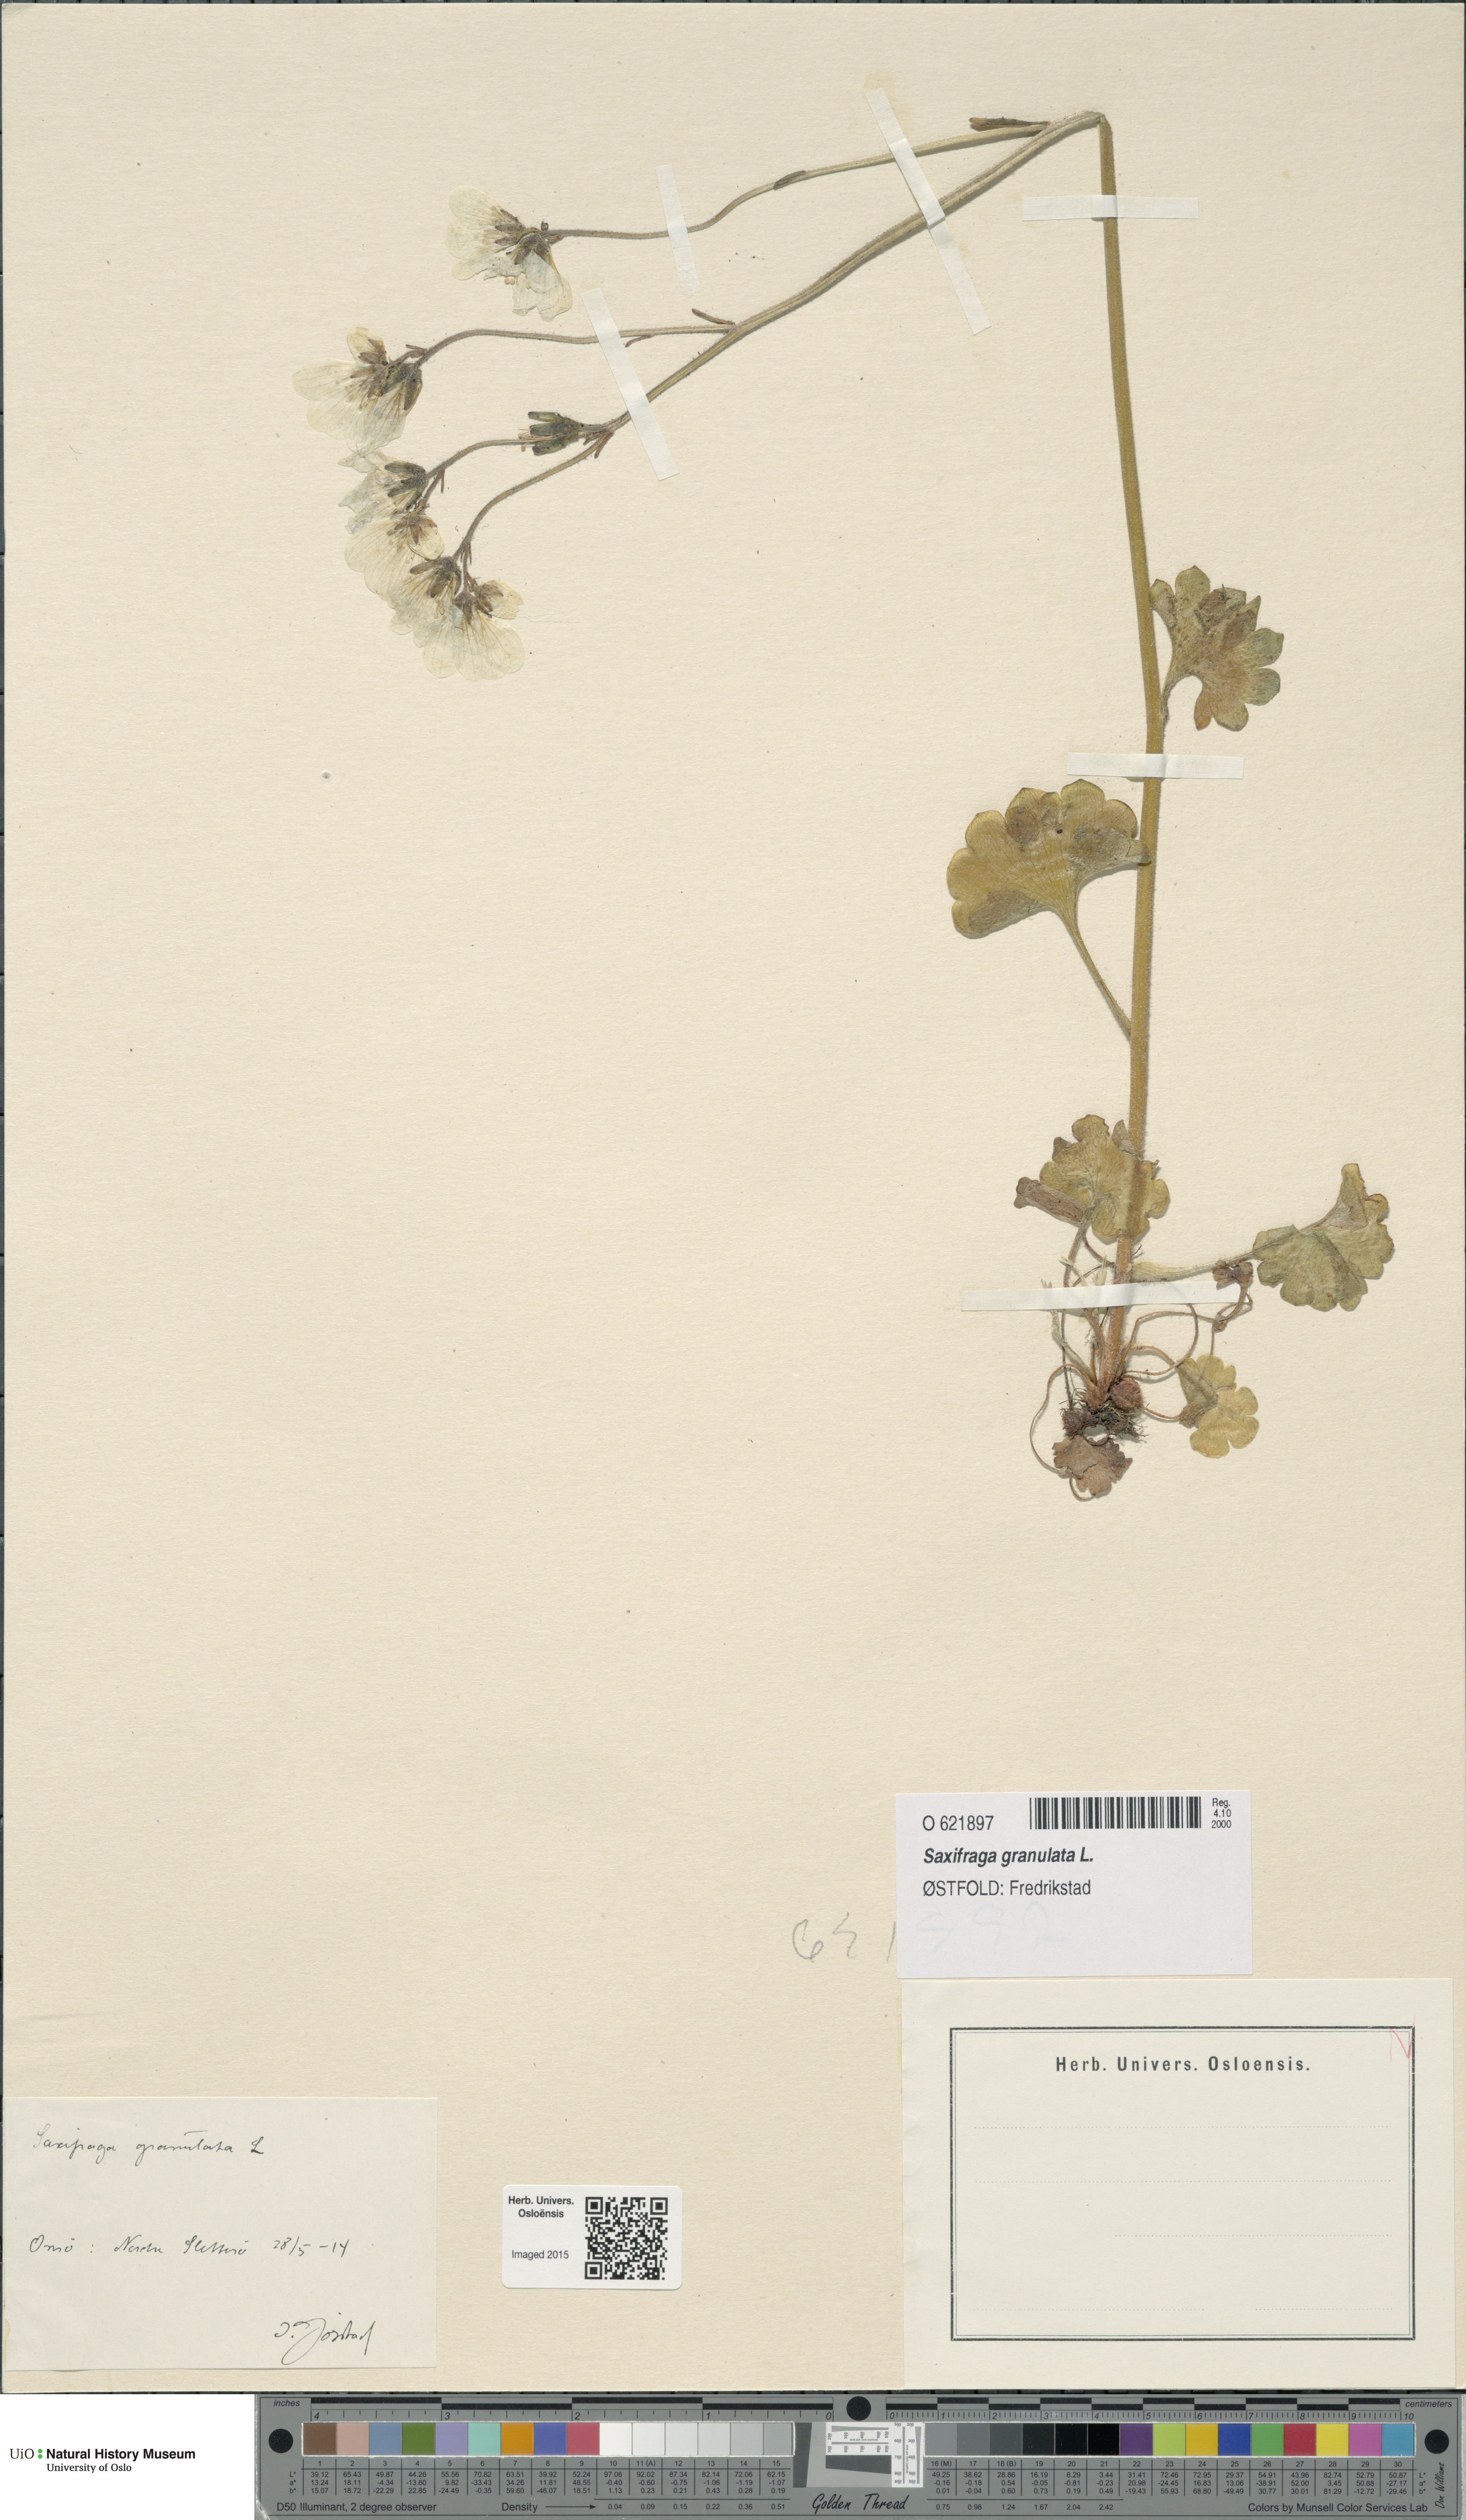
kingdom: Plantae
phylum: Tracheophyta
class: Magnoliopsida
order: Saxifragales
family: Saxifragaceae
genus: Saxifraga
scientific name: Saxifraga granulata
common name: Meadow saxifrage
